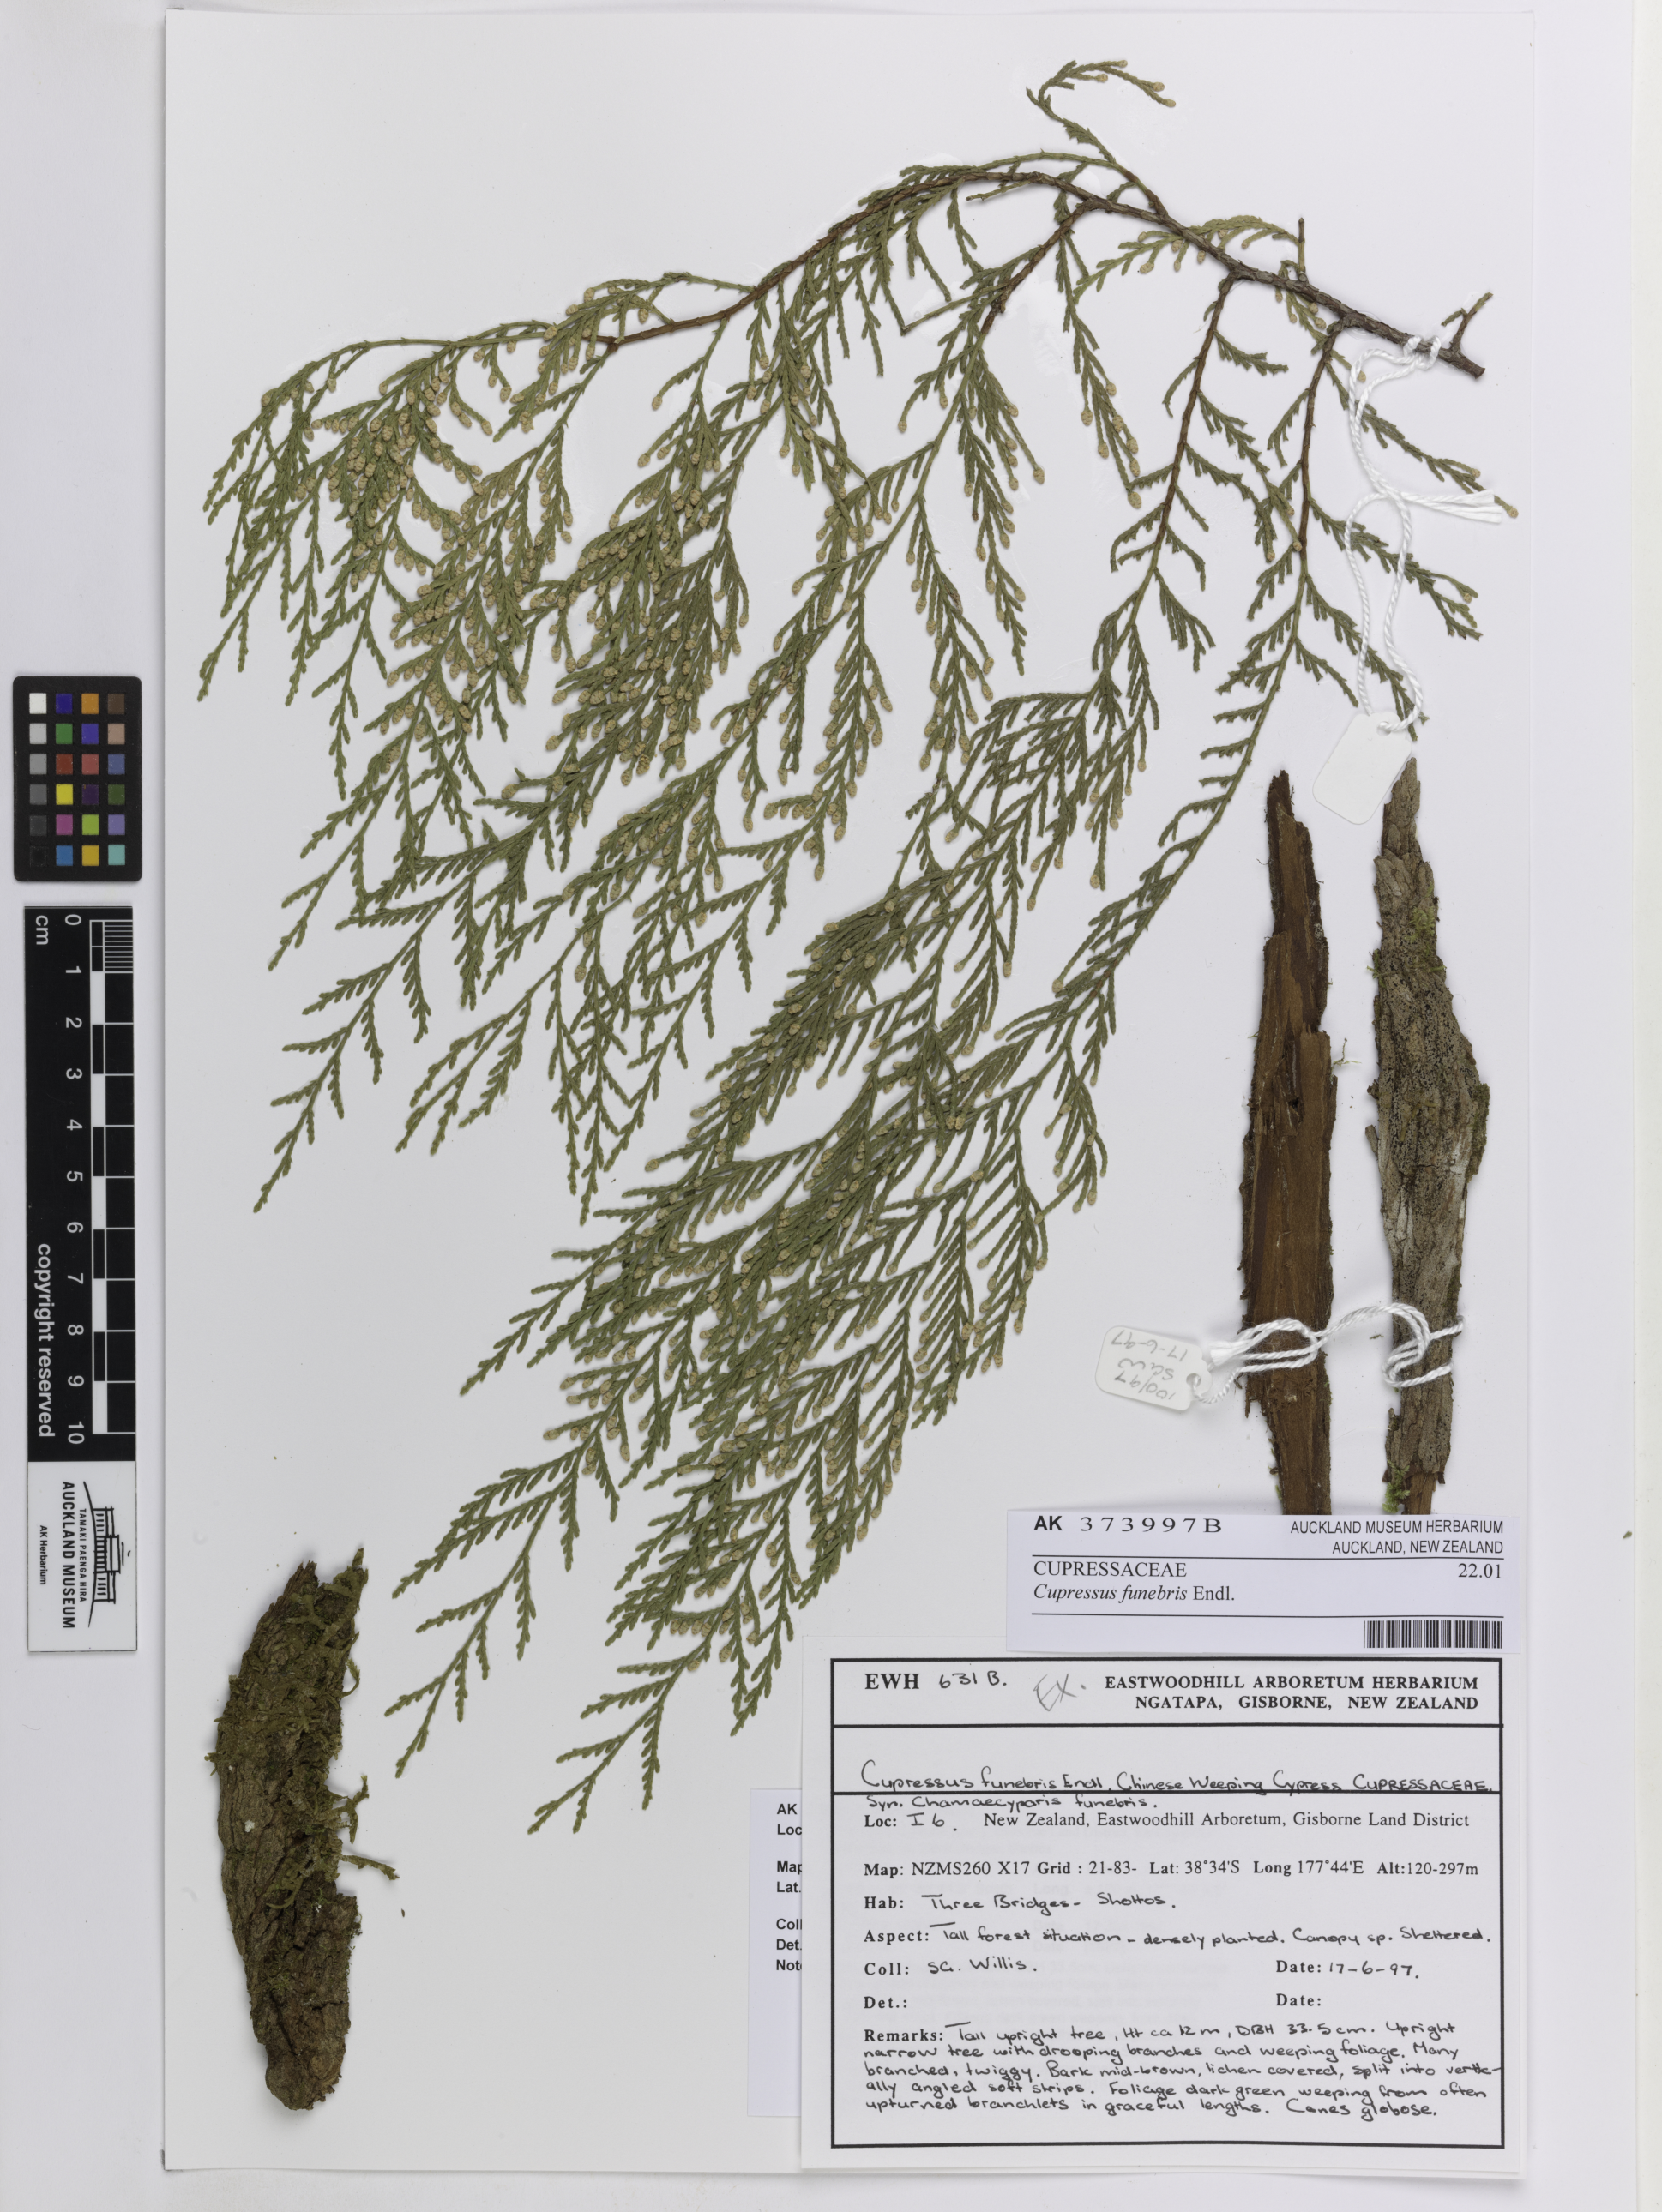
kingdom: Plantae
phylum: Tracheophyta
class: Pinopsida
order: Pinales
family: Cupressaceae
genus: Cupressus
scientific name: Cupressus funebris
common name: Chinese weeping cypress
